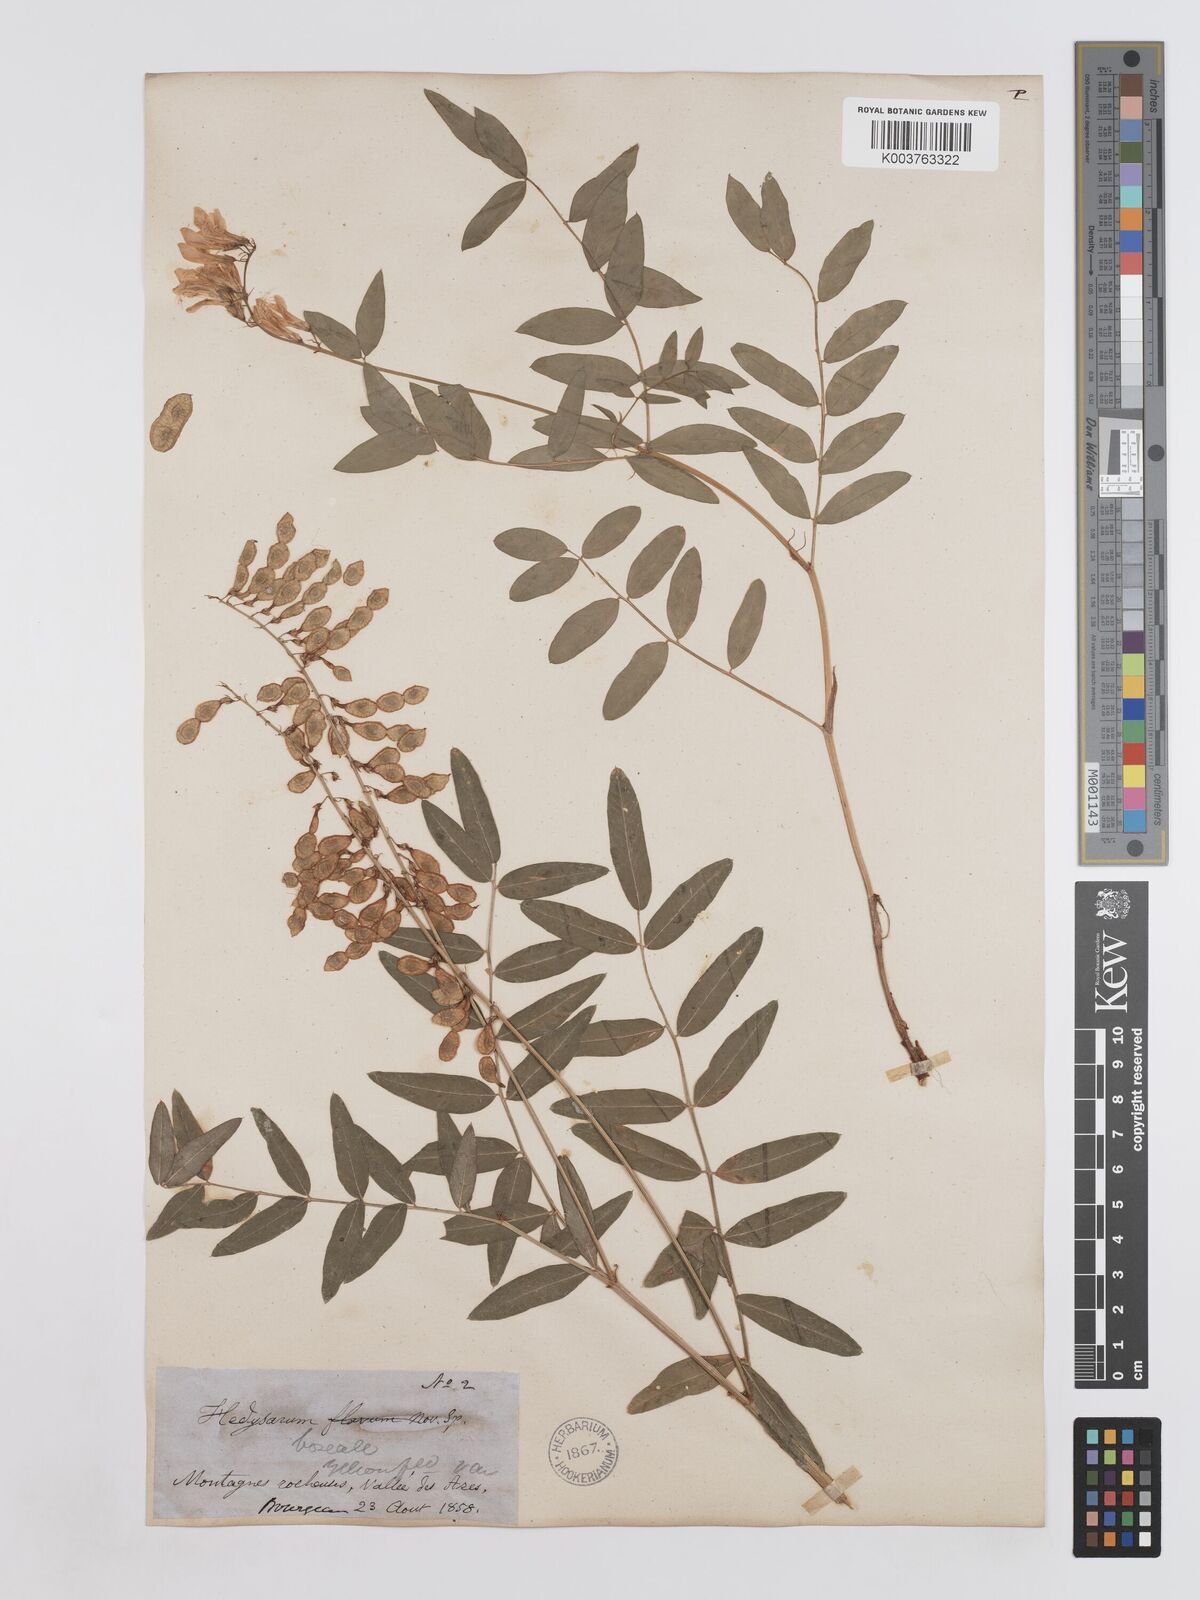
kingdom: Plantae
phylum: Tracheophyta
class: Magnoliopsida
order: Fabales
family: Fabaceae
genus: Hedysarum
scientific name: Hedysarum sulphurescens
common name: Sulphur hedysarum
